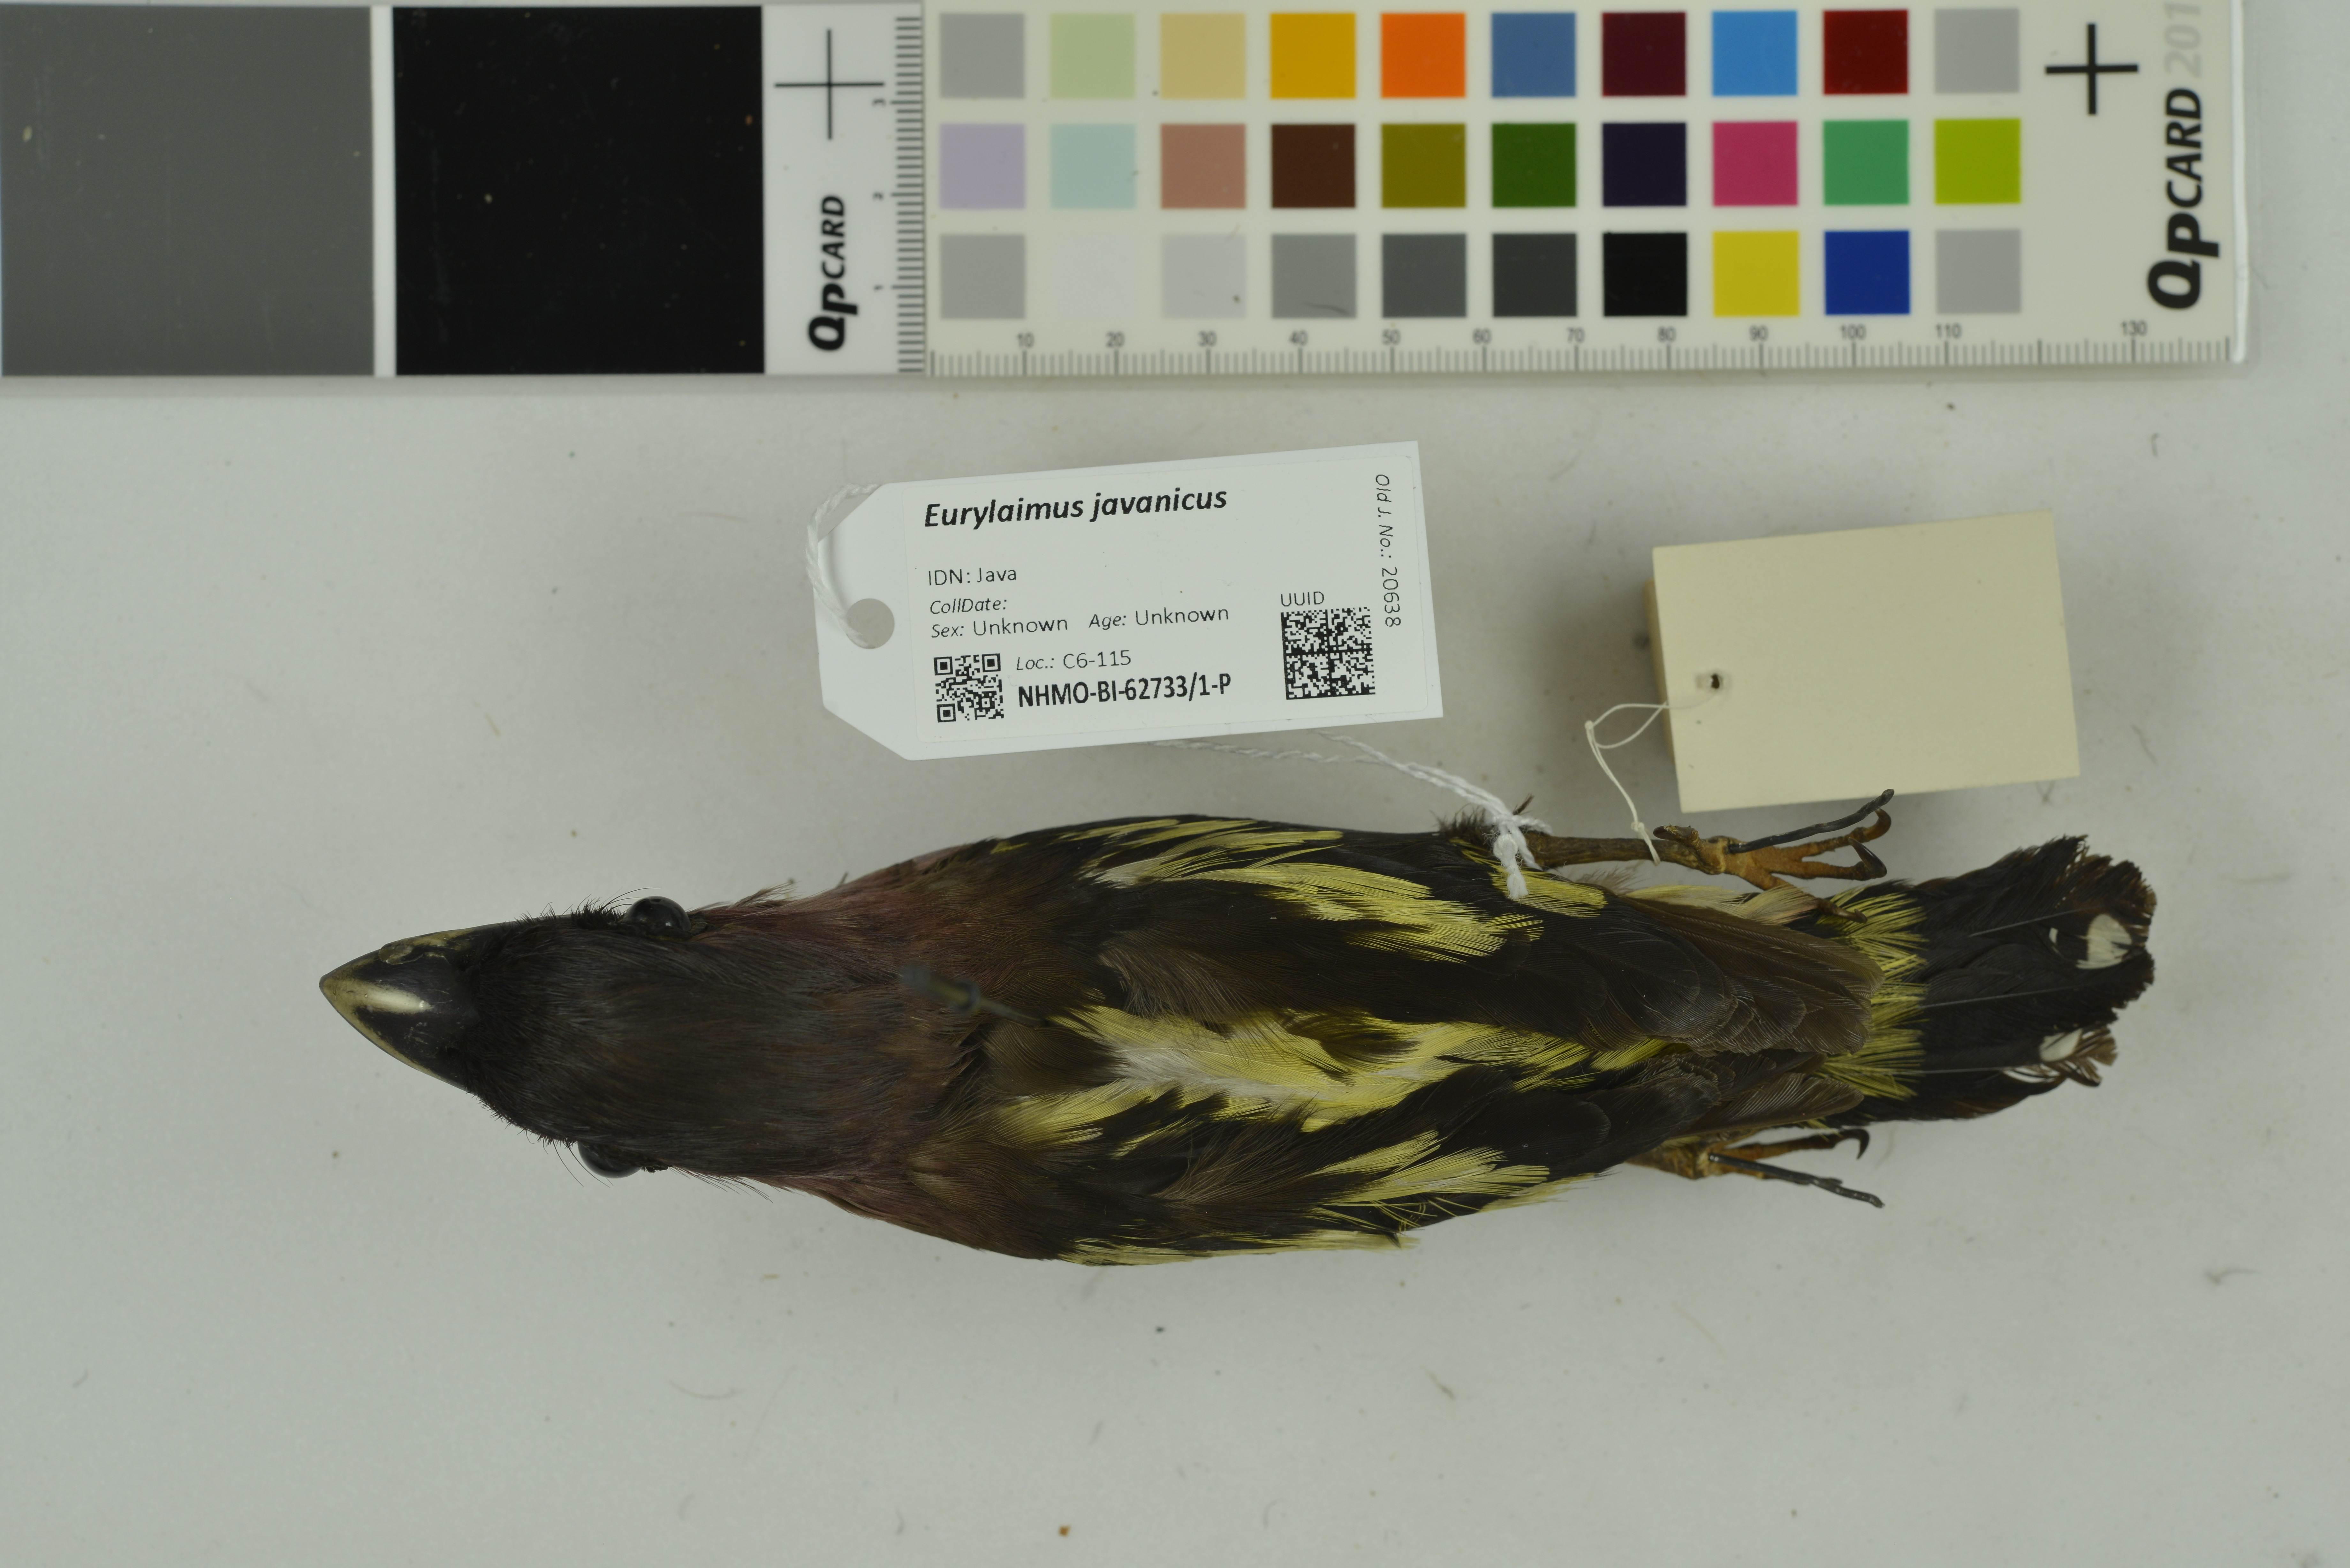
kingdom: Animalia
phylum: Chordata
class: Aves
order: Passeriformes
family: Eurylaimidae
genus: Eurylaimus
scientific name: Eurylaimus javanicus
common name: Banded broadbill
